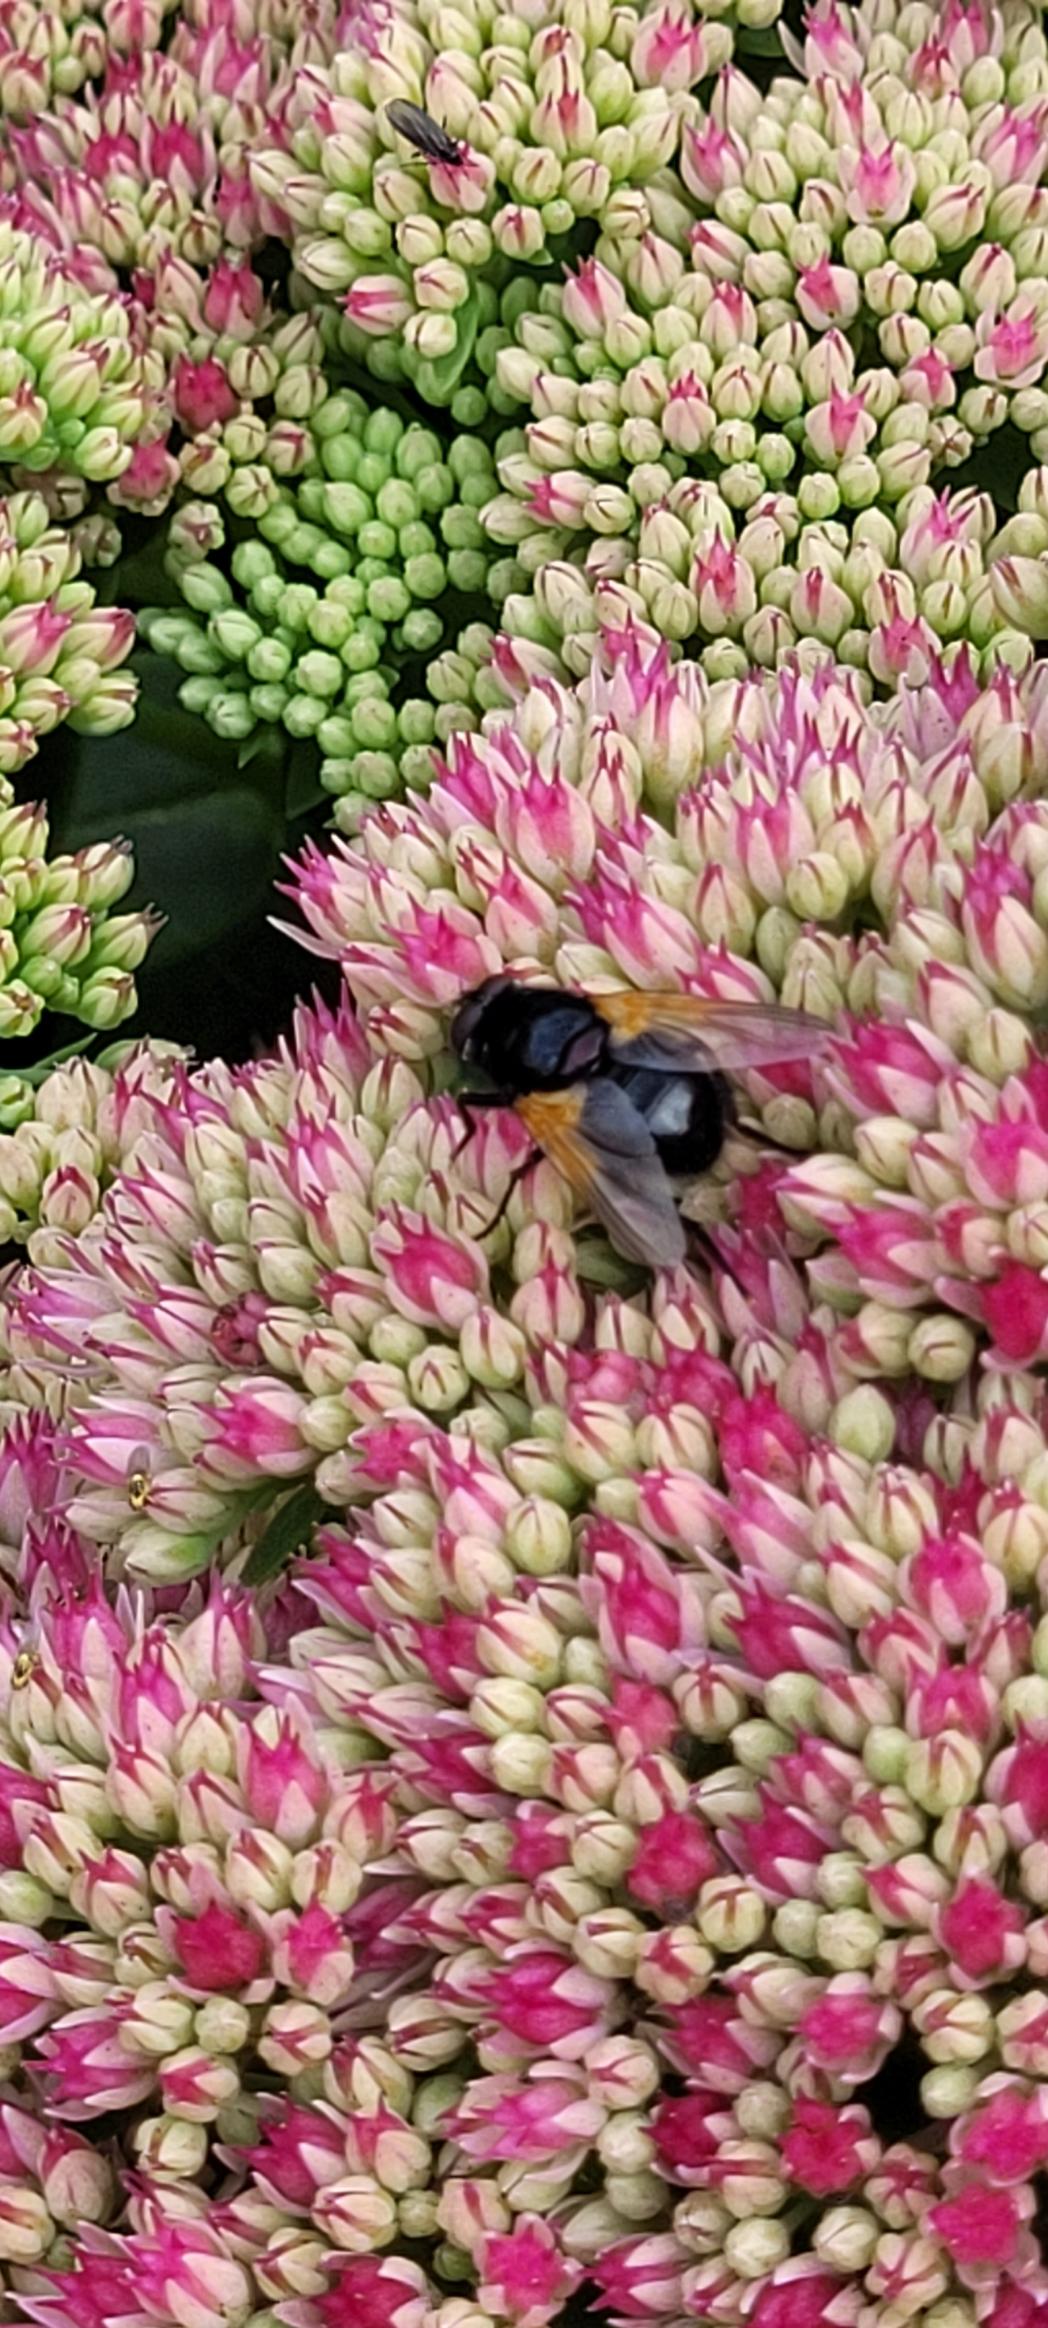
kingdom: Animalia
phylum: Arthropoda
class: Insecta
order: Diptera
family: Muscidae
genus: Mesembrina
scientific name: Mesembrina meridiana
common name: Gulvinget flue
